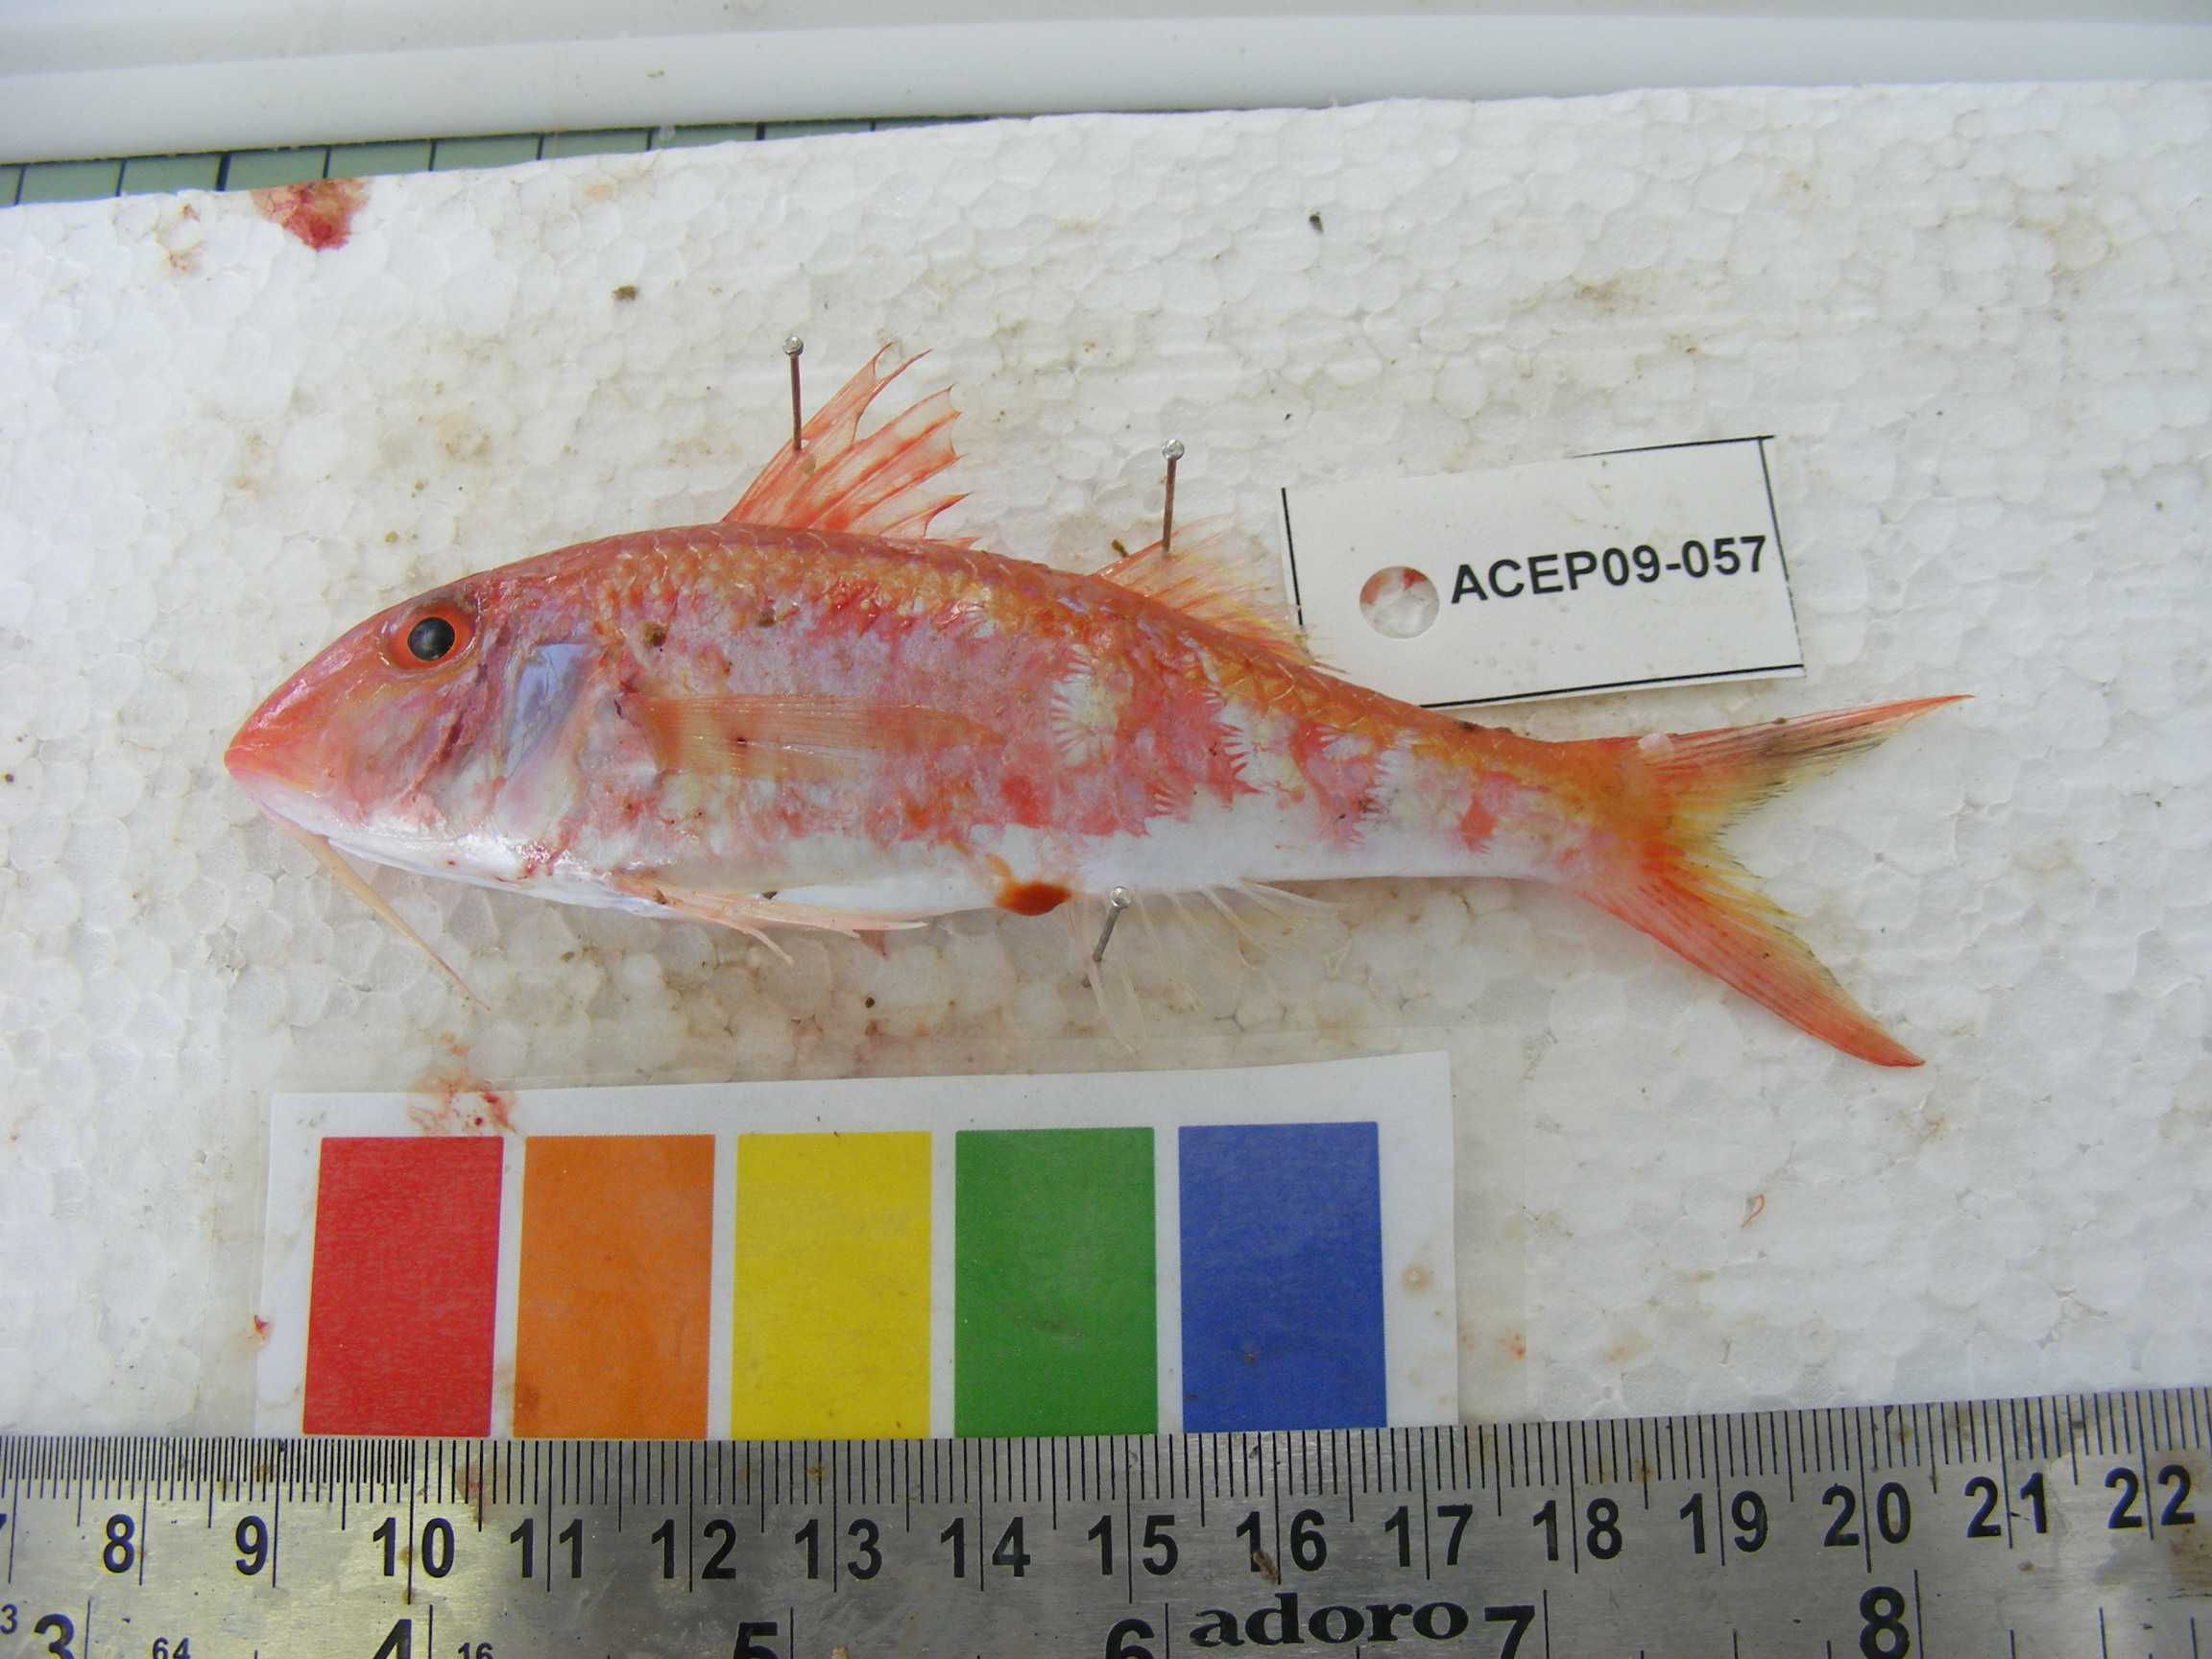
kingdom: Animalia
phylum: Chordata
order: Perciformes
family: Mullidae
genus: Parupeneus
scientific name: Parupeneus heptacanthus
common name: Cinnabar goatfish
